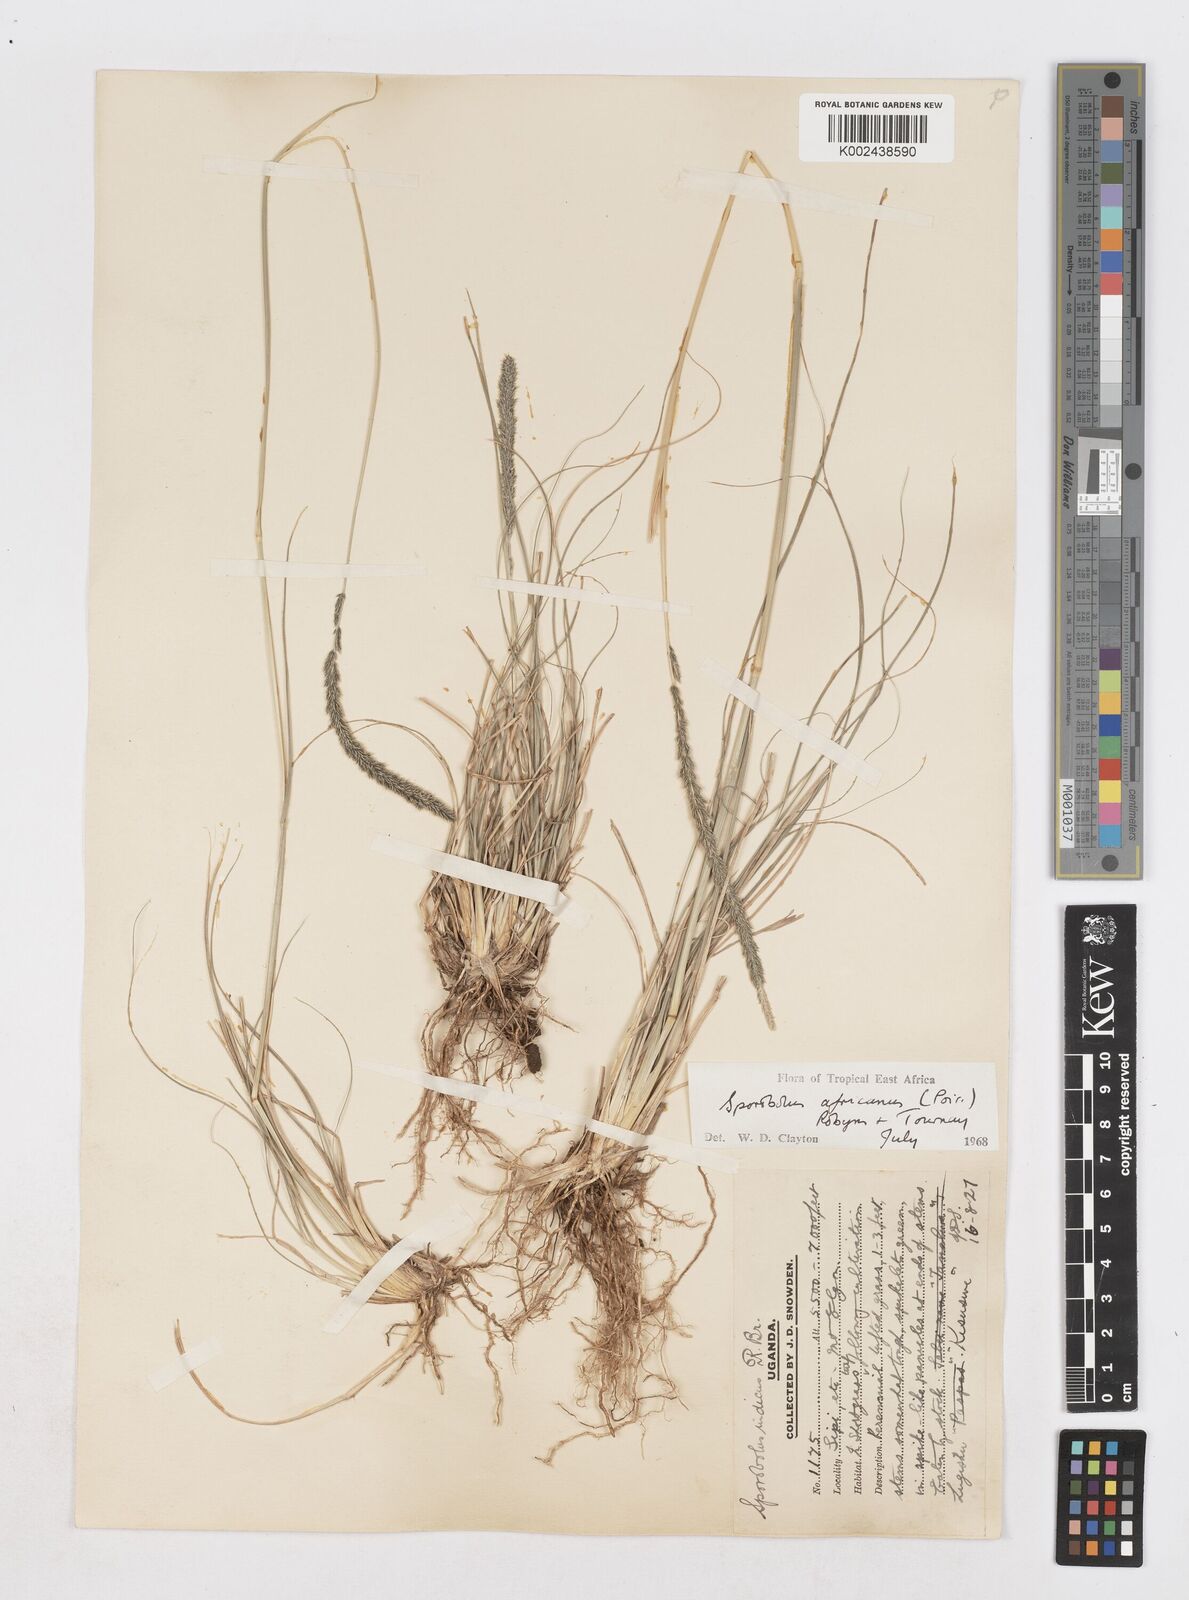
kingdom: Plantae
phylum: Tracheophyta
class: Liliopsida
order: Poales
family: Poaceae
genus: Sporobolus
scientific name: Sporobolus africanus
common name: African dropseed
